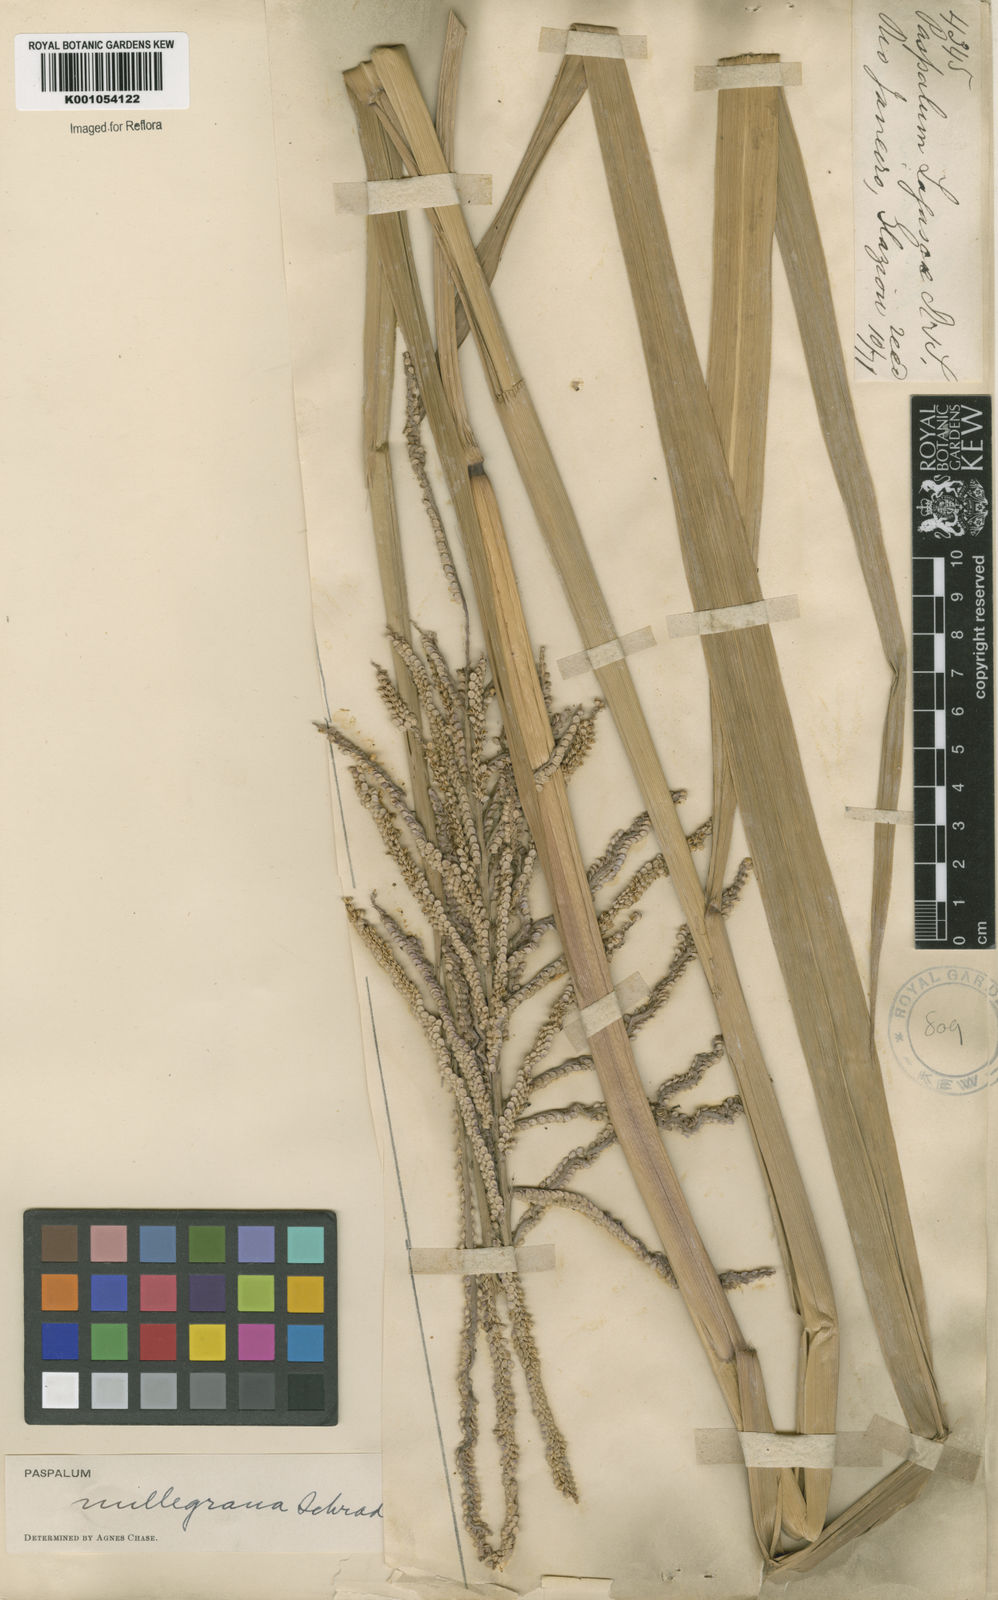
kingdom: Plantae
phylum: Tracheophyta
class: Liliopsida
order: Poales
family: Poaceae
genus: Paspalum
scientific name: Paspalum
